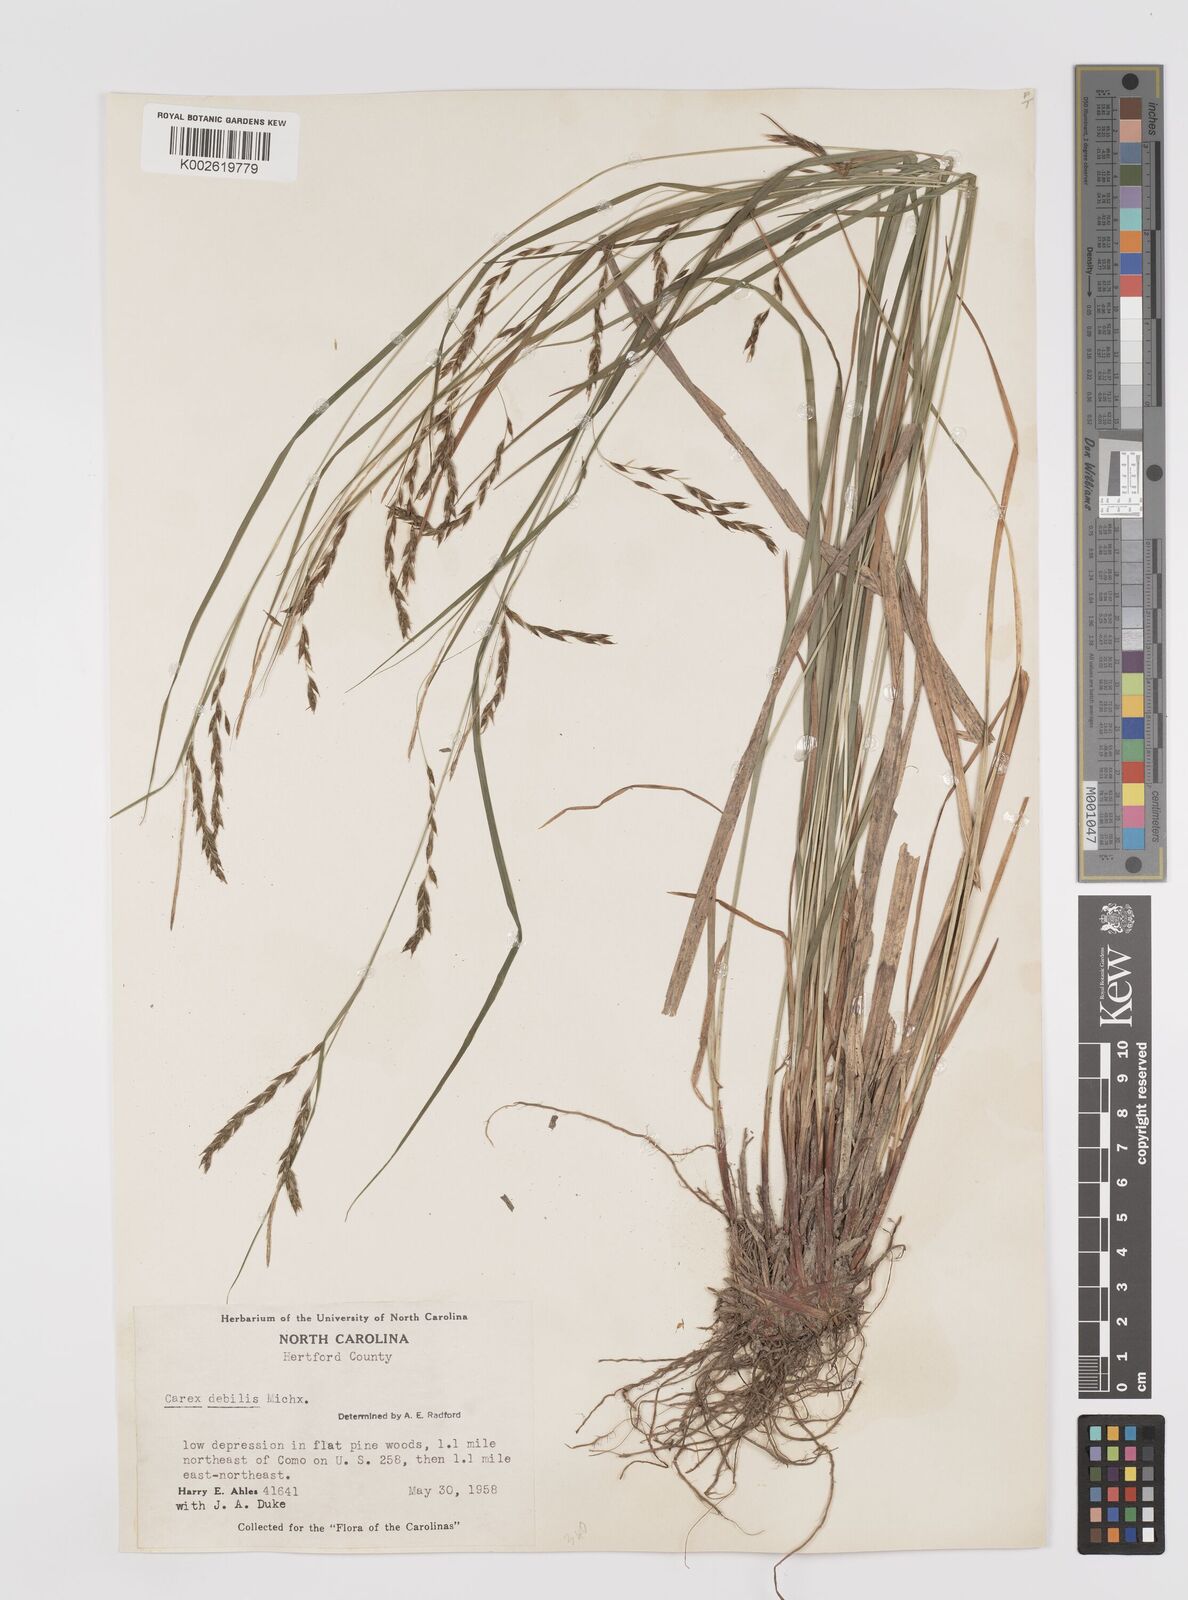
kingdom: Plantae
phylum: Tracheophyta
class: Liliopsida
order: Poales
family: Cyperaceae
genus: Carex
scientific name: Carex debilis
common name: White-edge sedge
